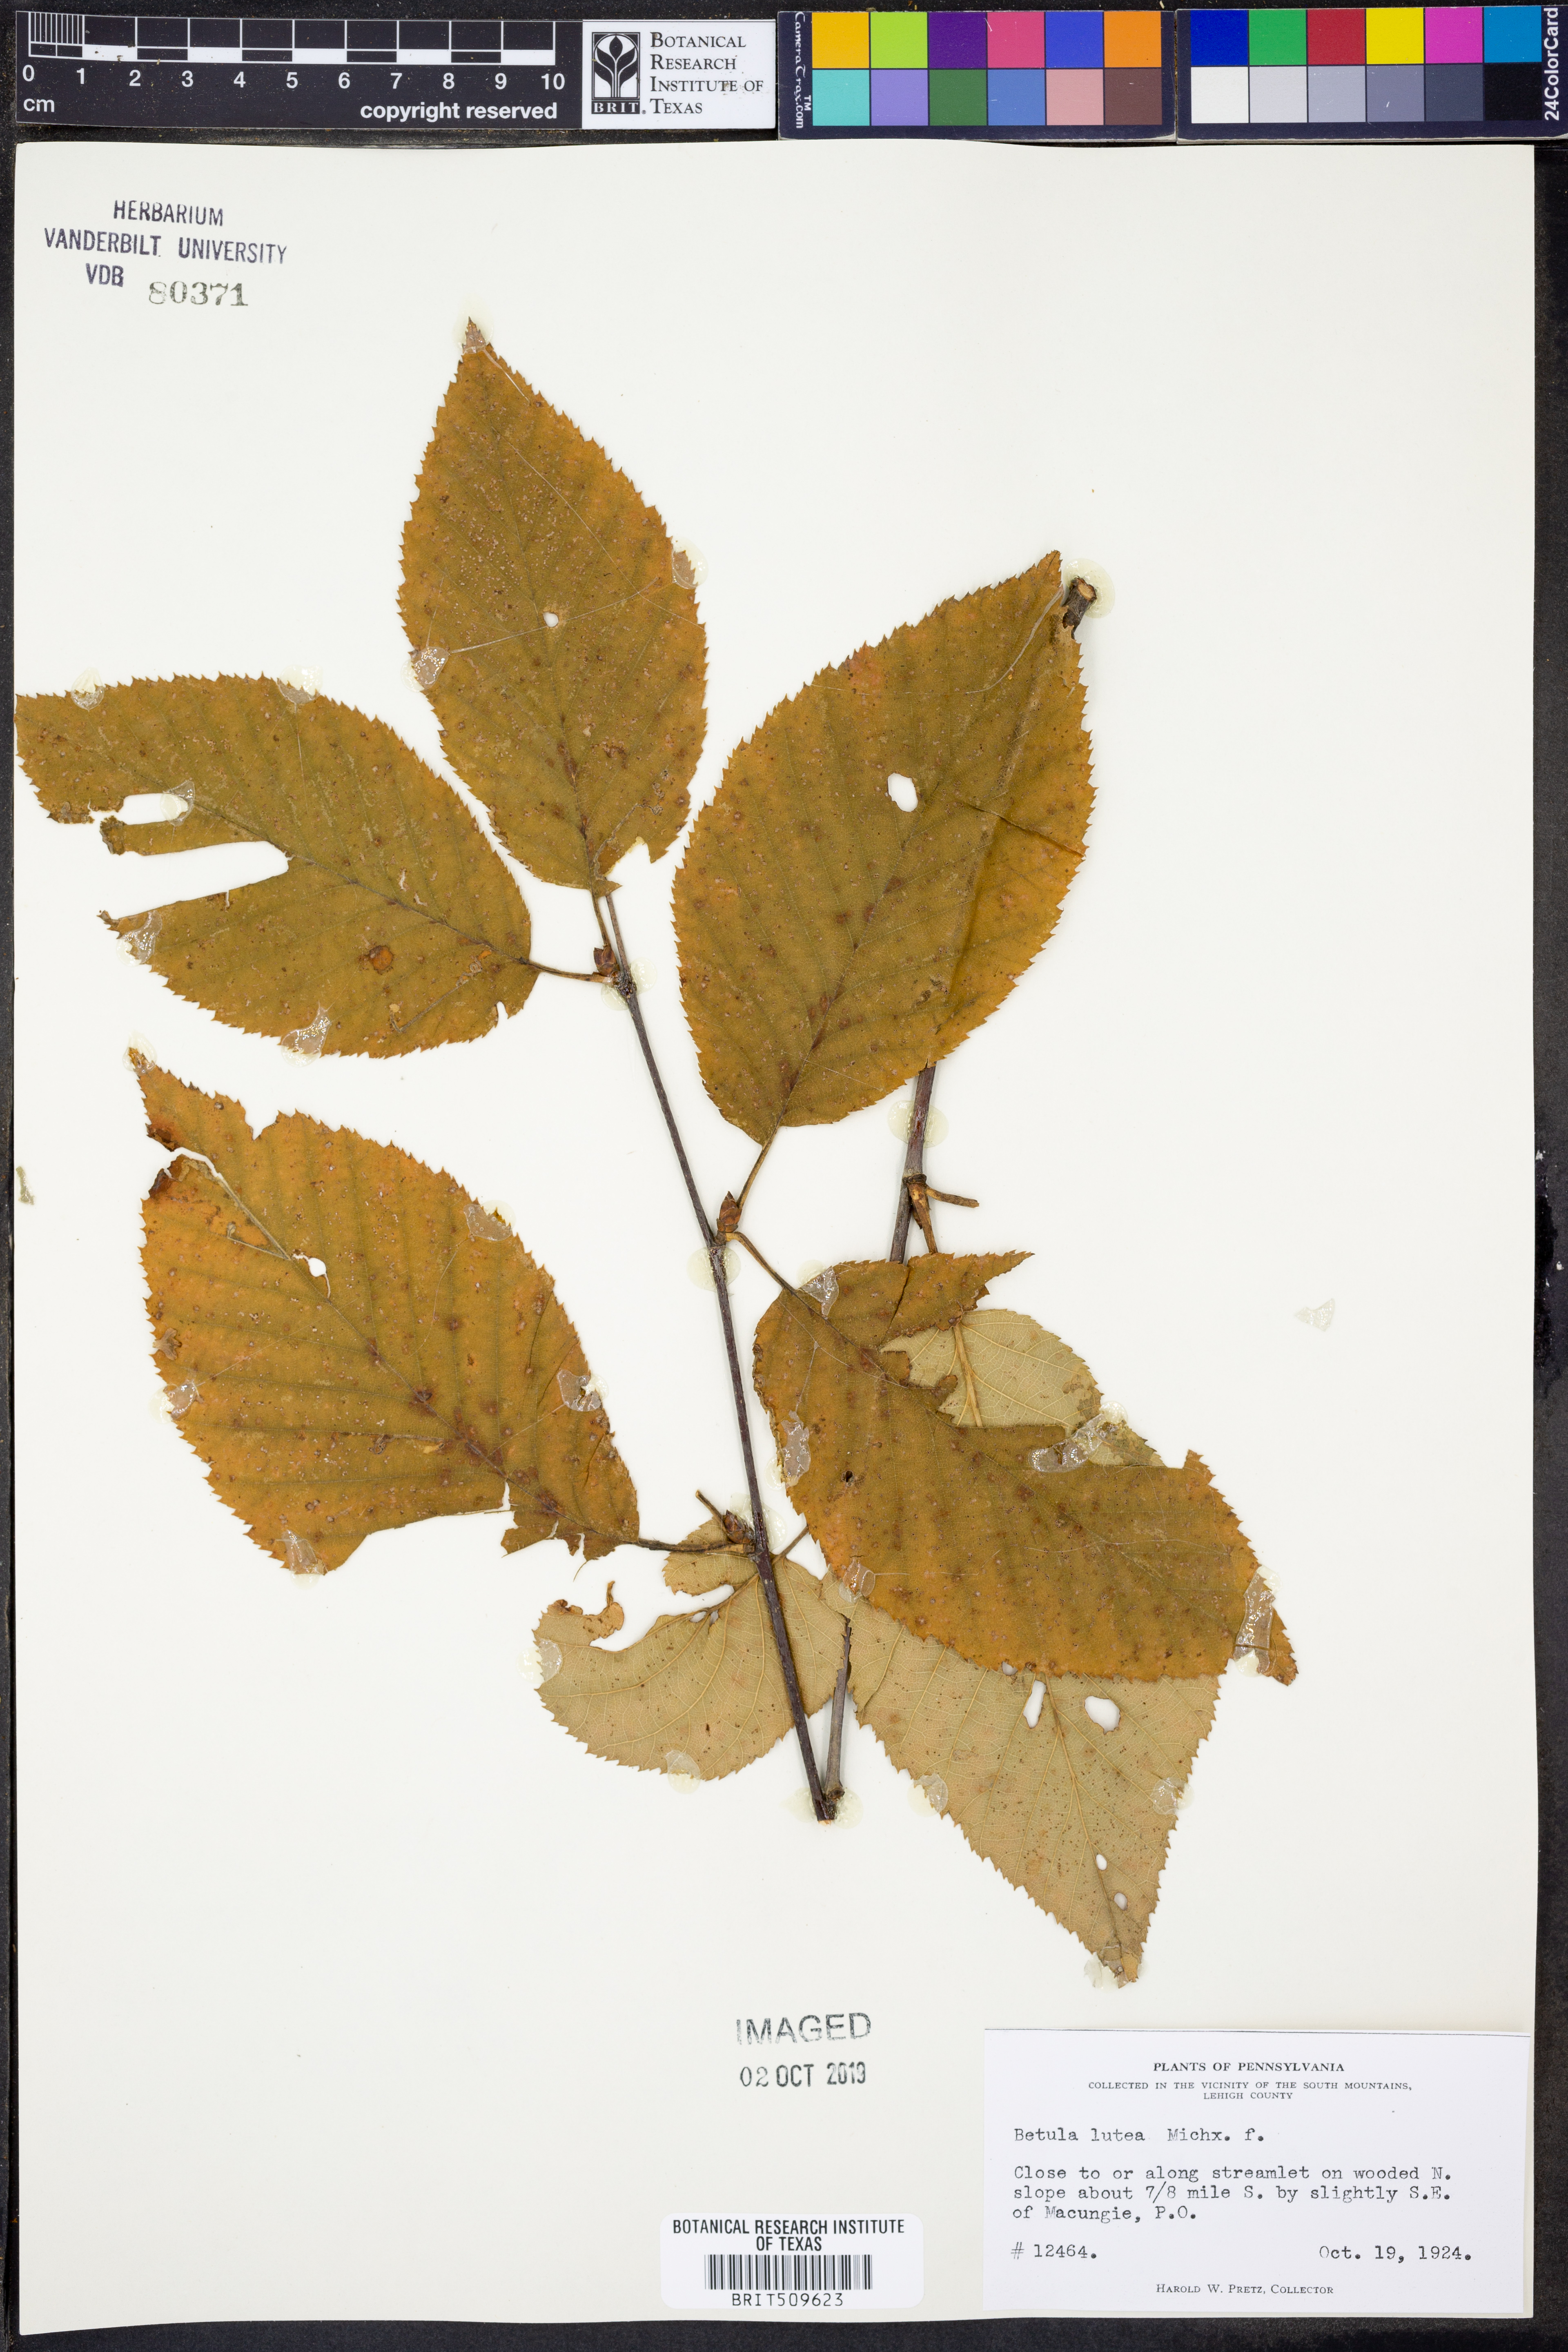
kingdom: Plantae
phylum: Tracheophyta
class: Magnoliopsida
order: Fagales
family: Betulaceae
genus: Betula
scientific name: Betula alleghaniensis
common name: Yellow birch
